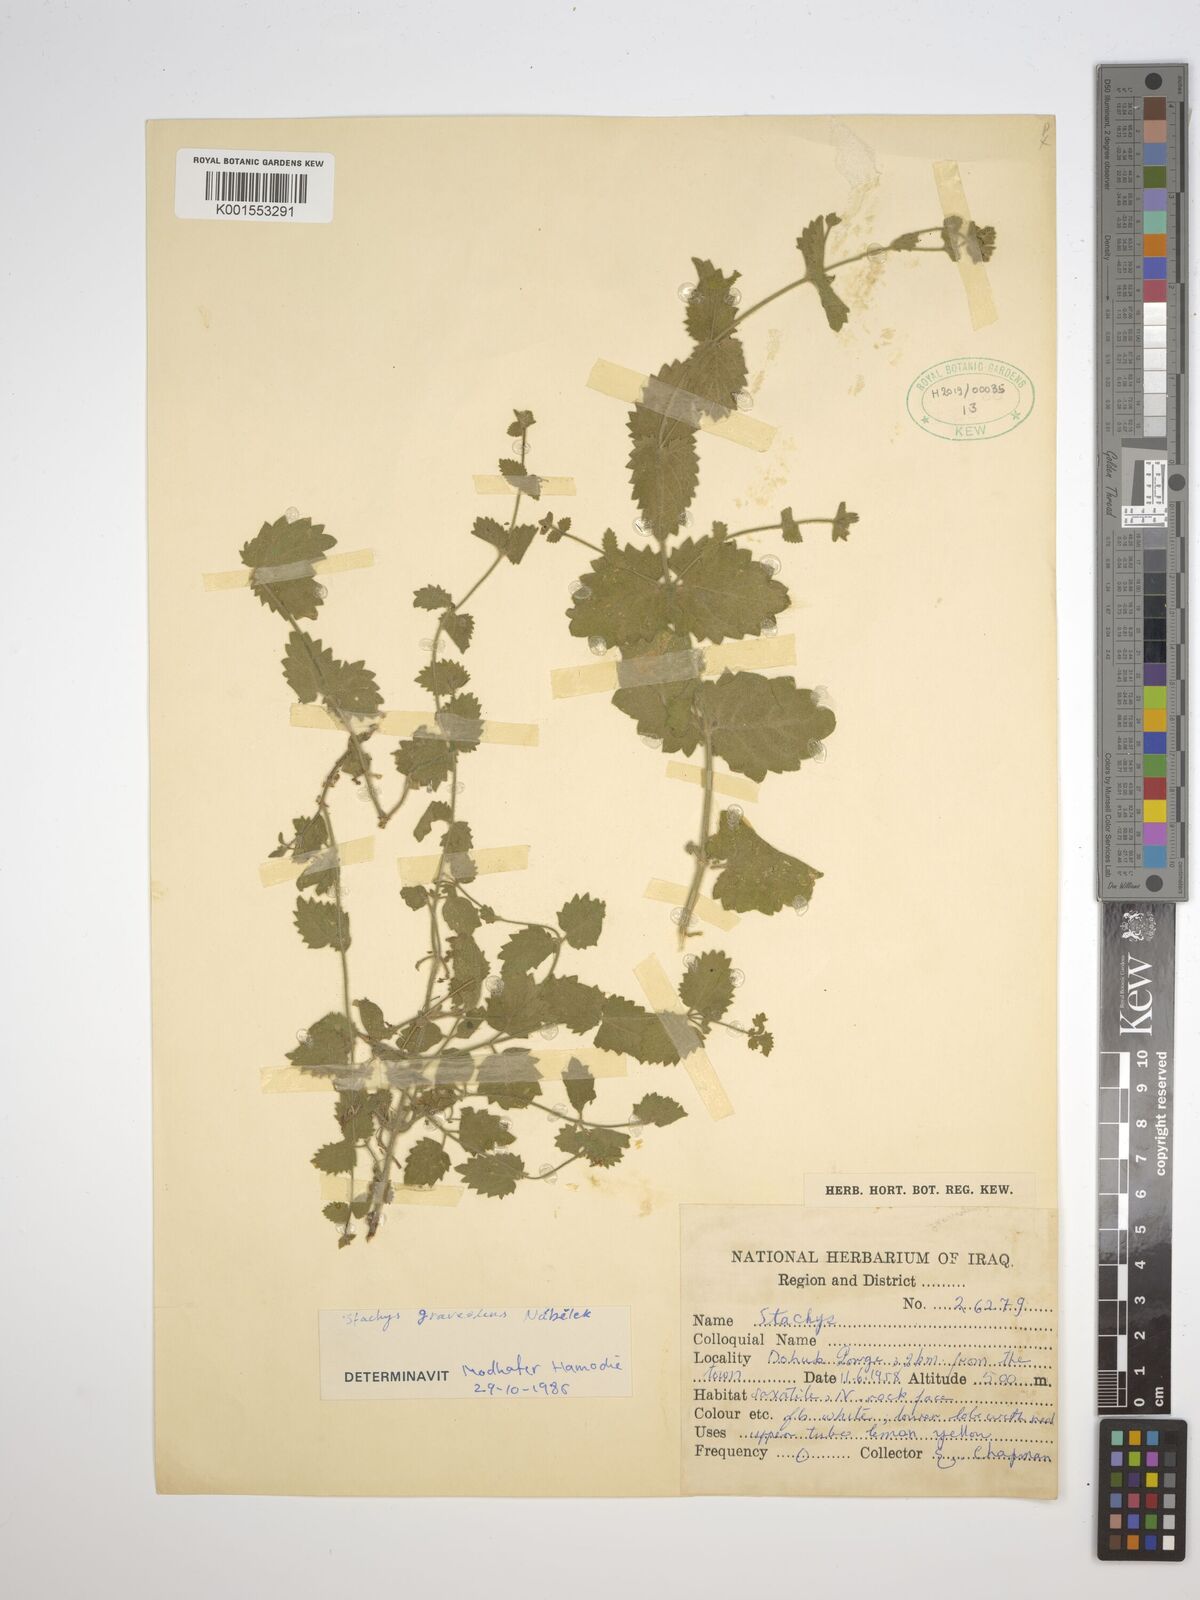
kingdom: Plantae
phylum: Tracheophyta
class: Magnoliopsida
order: Lamiales
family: Lamiaceae
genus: Stachys
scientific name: Stachys graveolens
